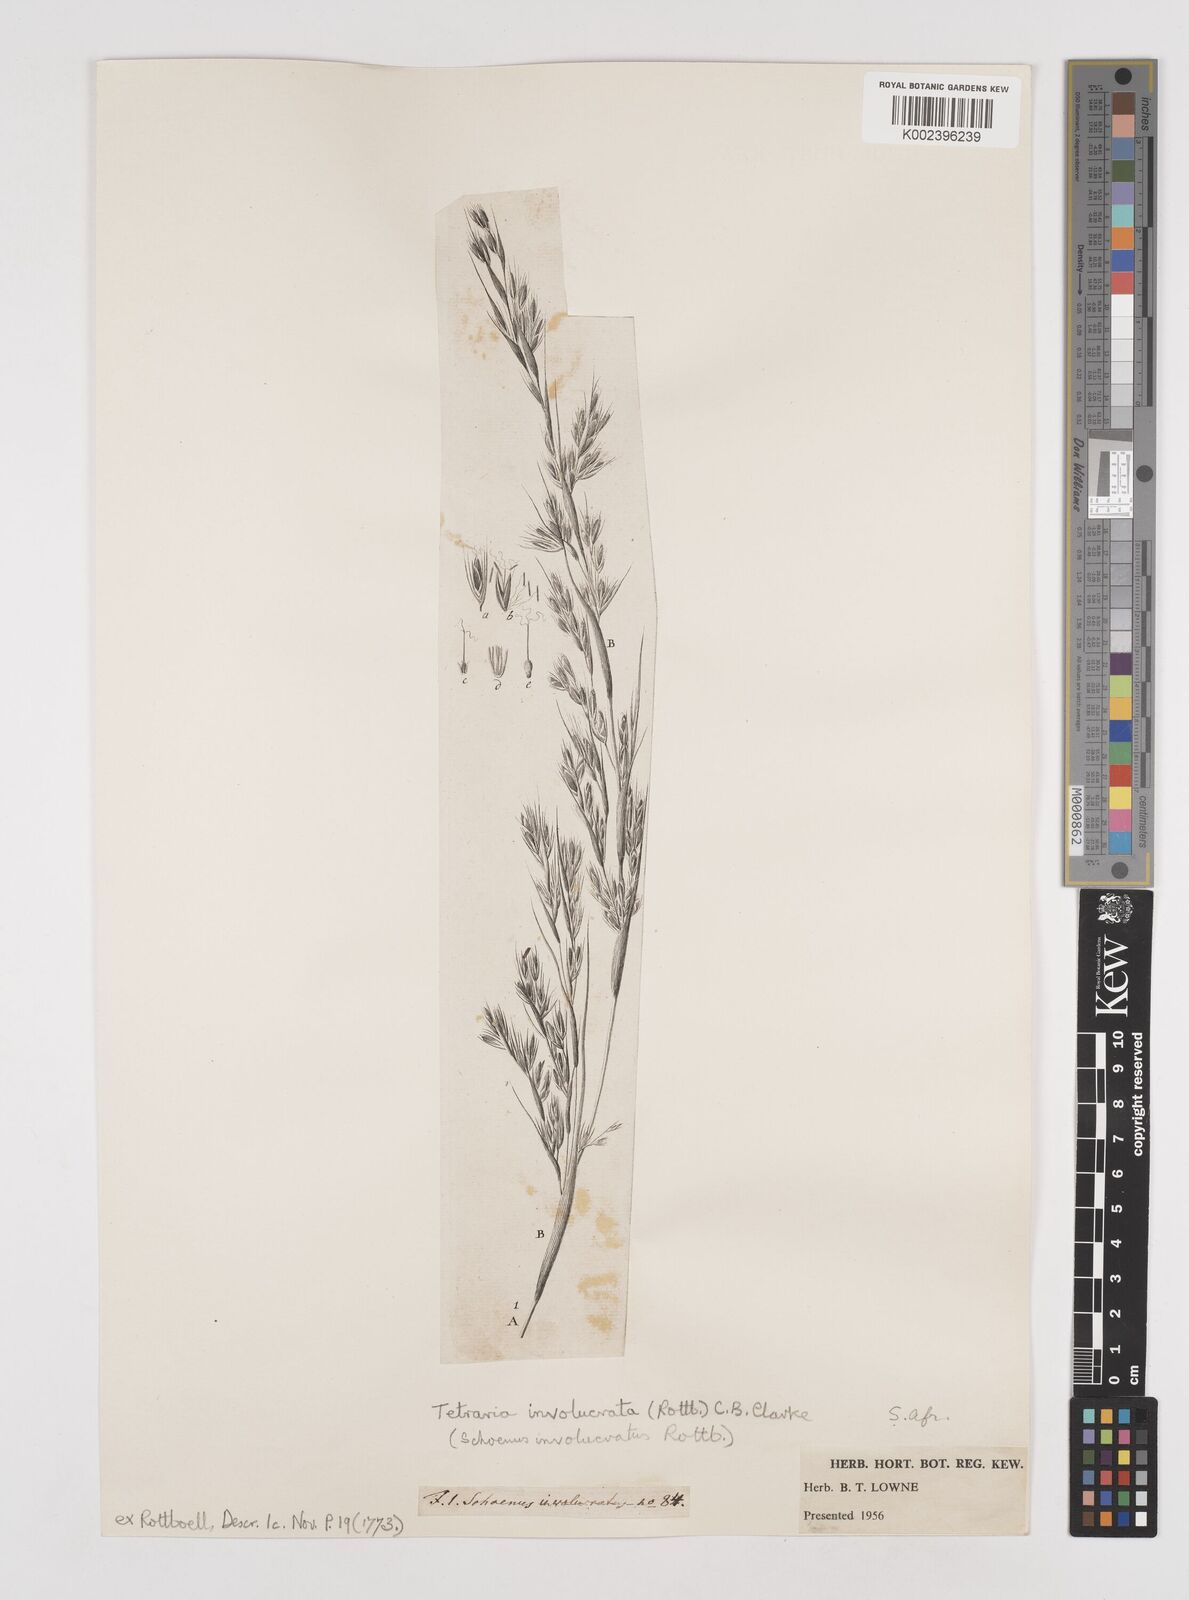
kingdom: Plantae
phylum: Tracheophyta
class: Liliopsida
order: Poales
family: Cyperaceae
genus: Tetraria
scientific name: Tetraria involucrata
